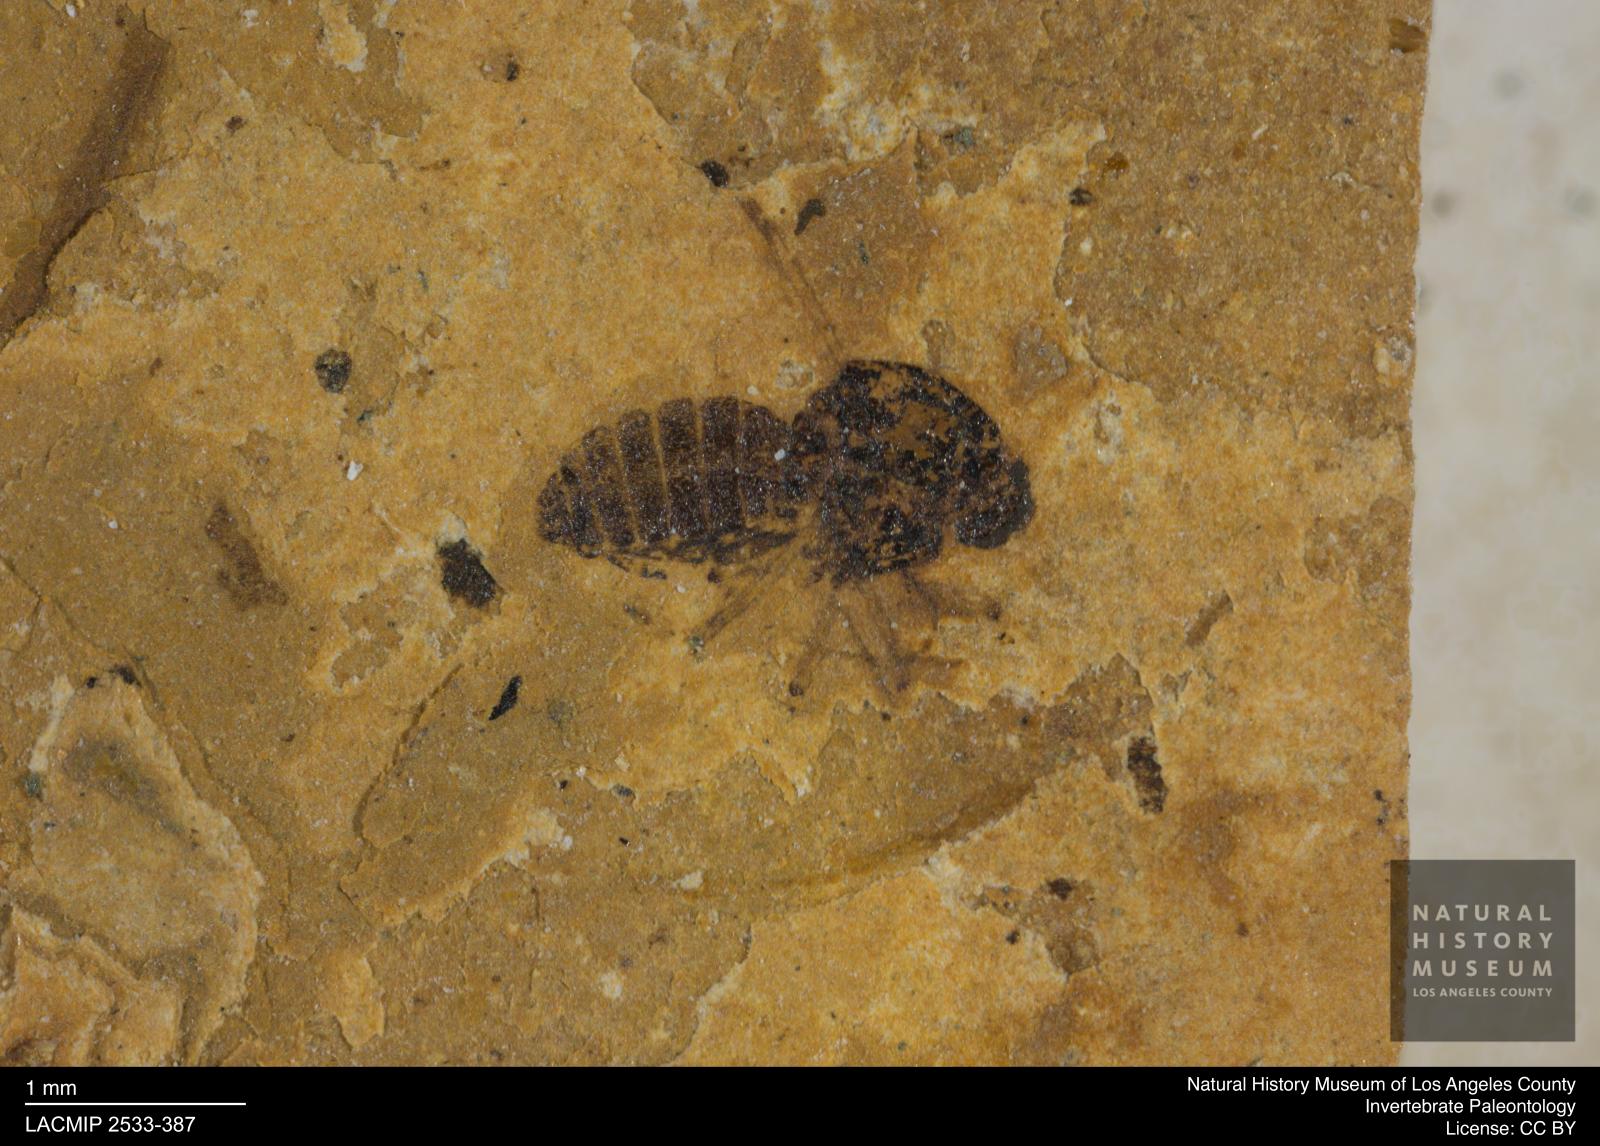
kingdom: Animalia
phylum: Arthropoda
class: Insecta
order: Diptera
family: Ceratopogonidae
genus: Culicoides
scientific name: Culicoides obscuratus
